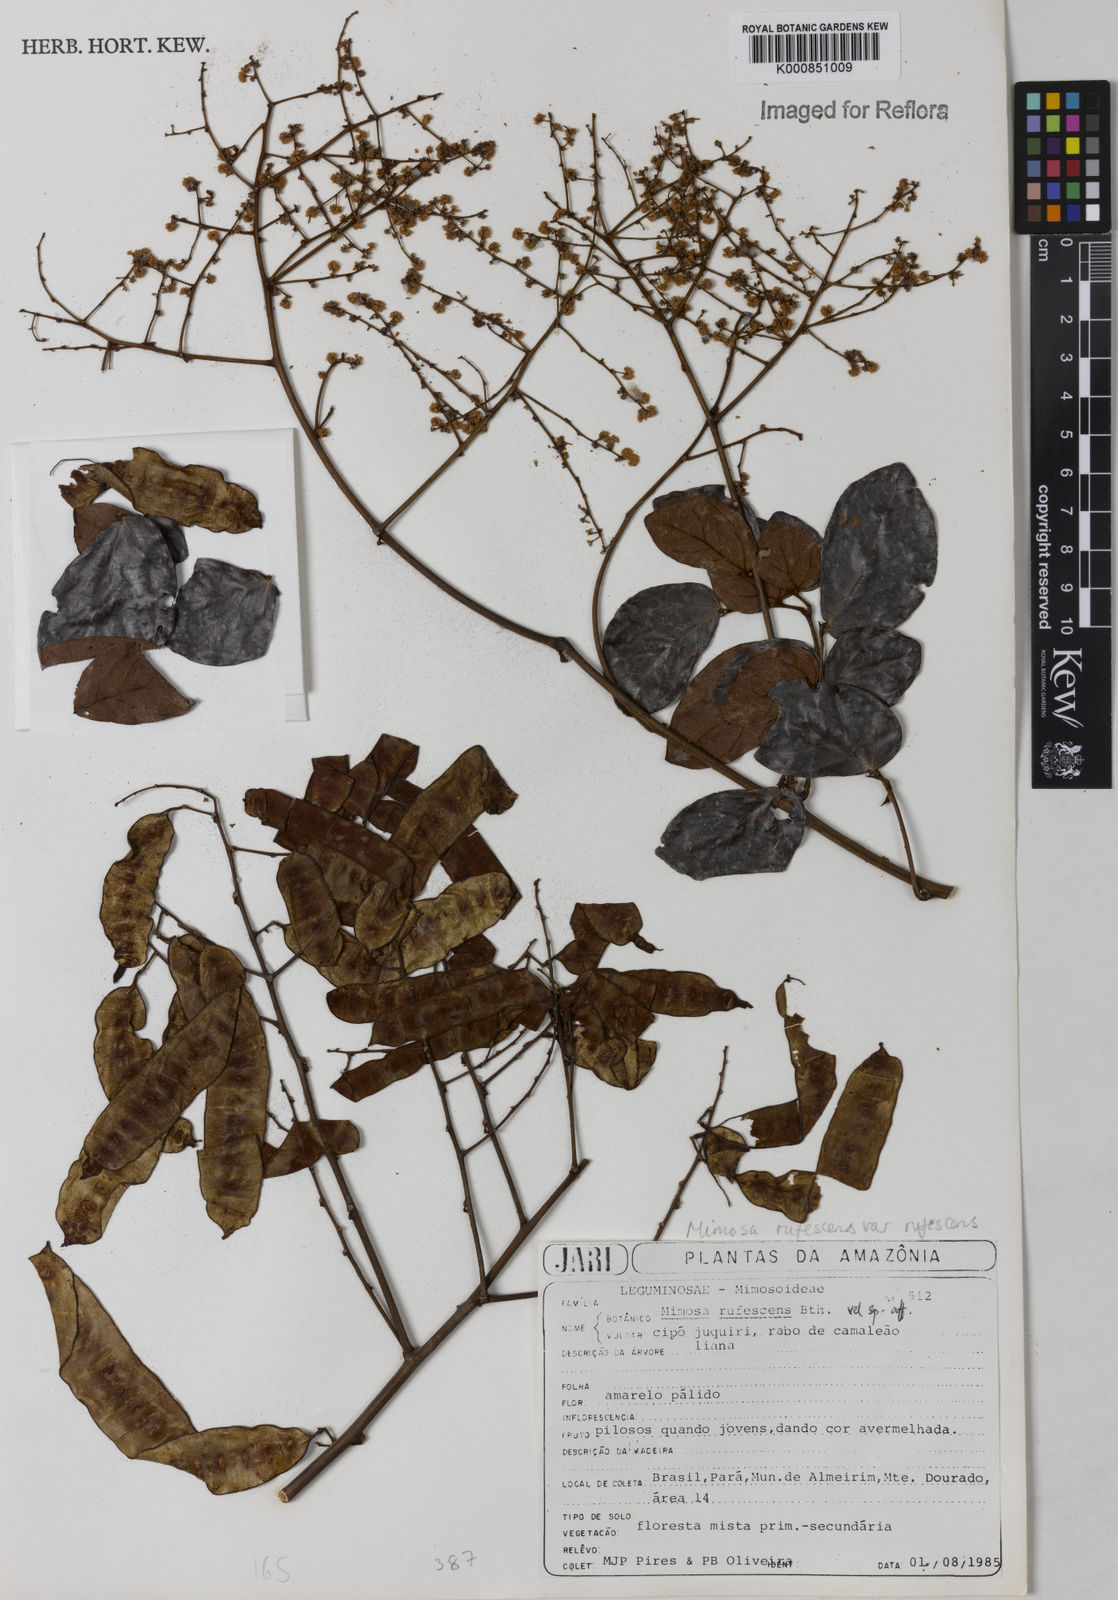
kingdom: Plantae
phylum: Tracheophyta
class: Magnoliopsida
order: Fabales
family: Fabaceae
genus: Mimosa
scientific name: Mimosa rufescens
